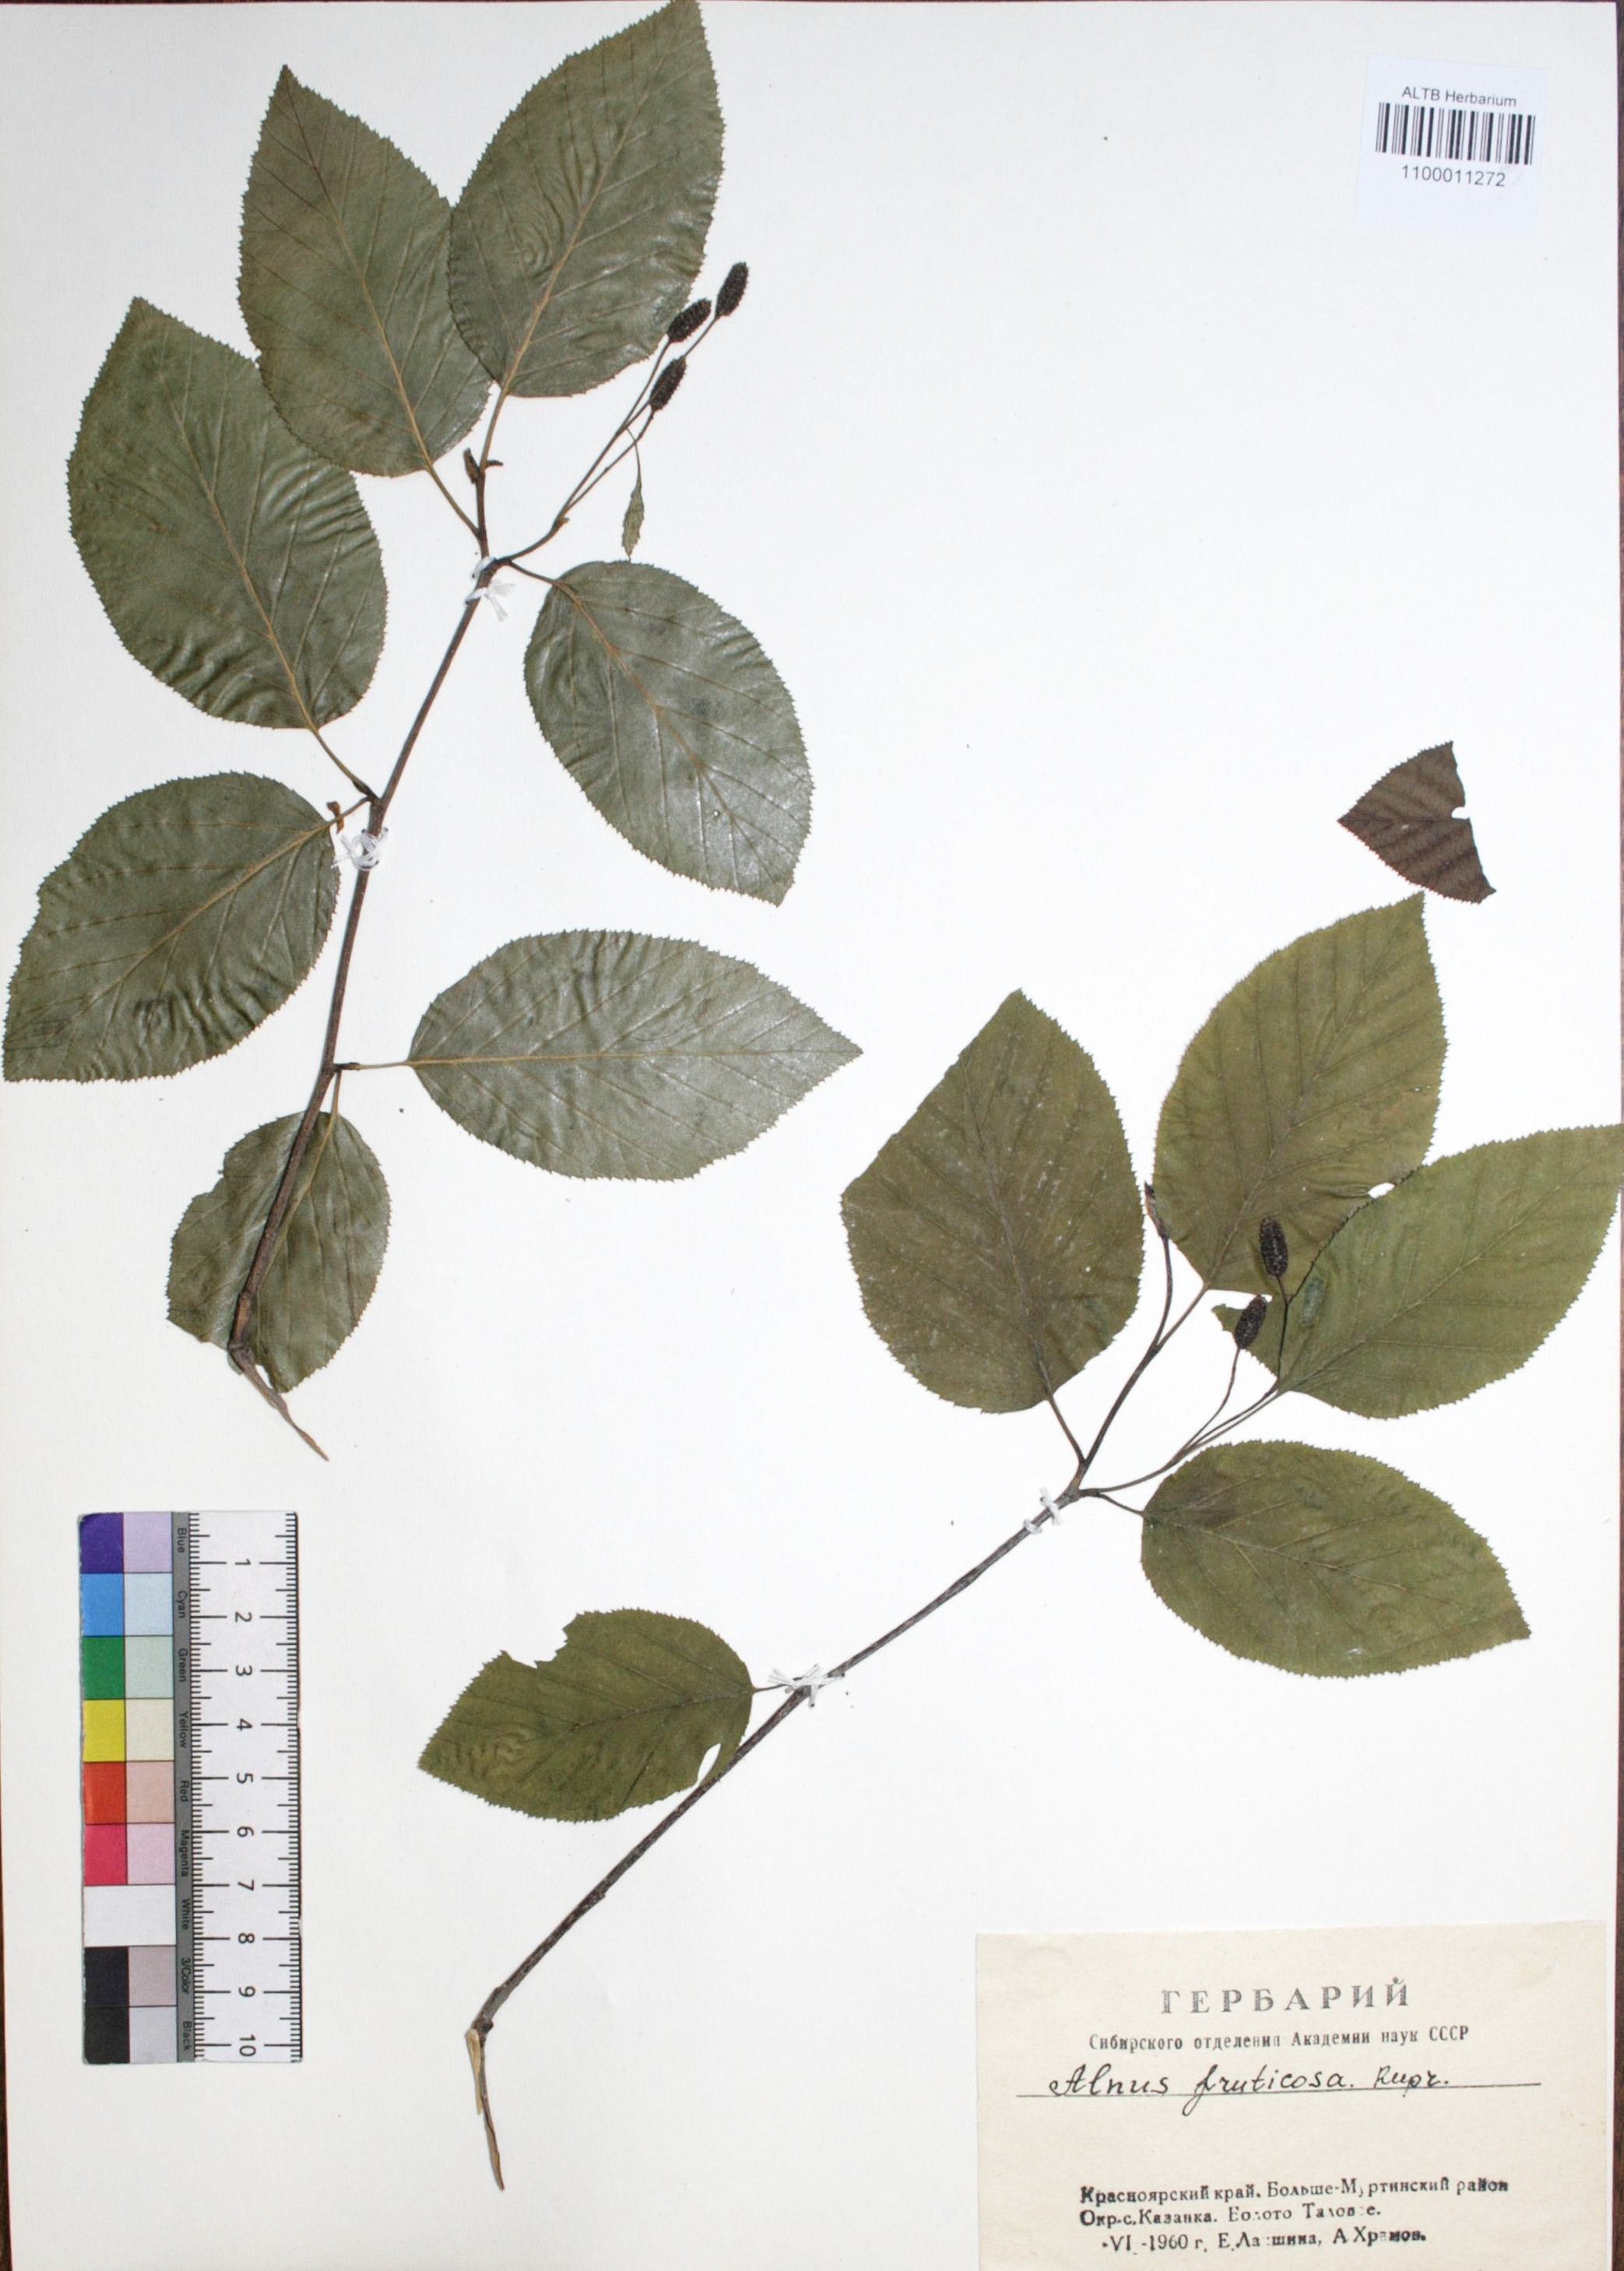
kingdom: Plantae
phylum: Tracheophyta
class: Magnoliopsida
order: Fagales
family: Betulaceae
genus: Alnus
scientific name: Alnus alnobetula
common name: Green alder
